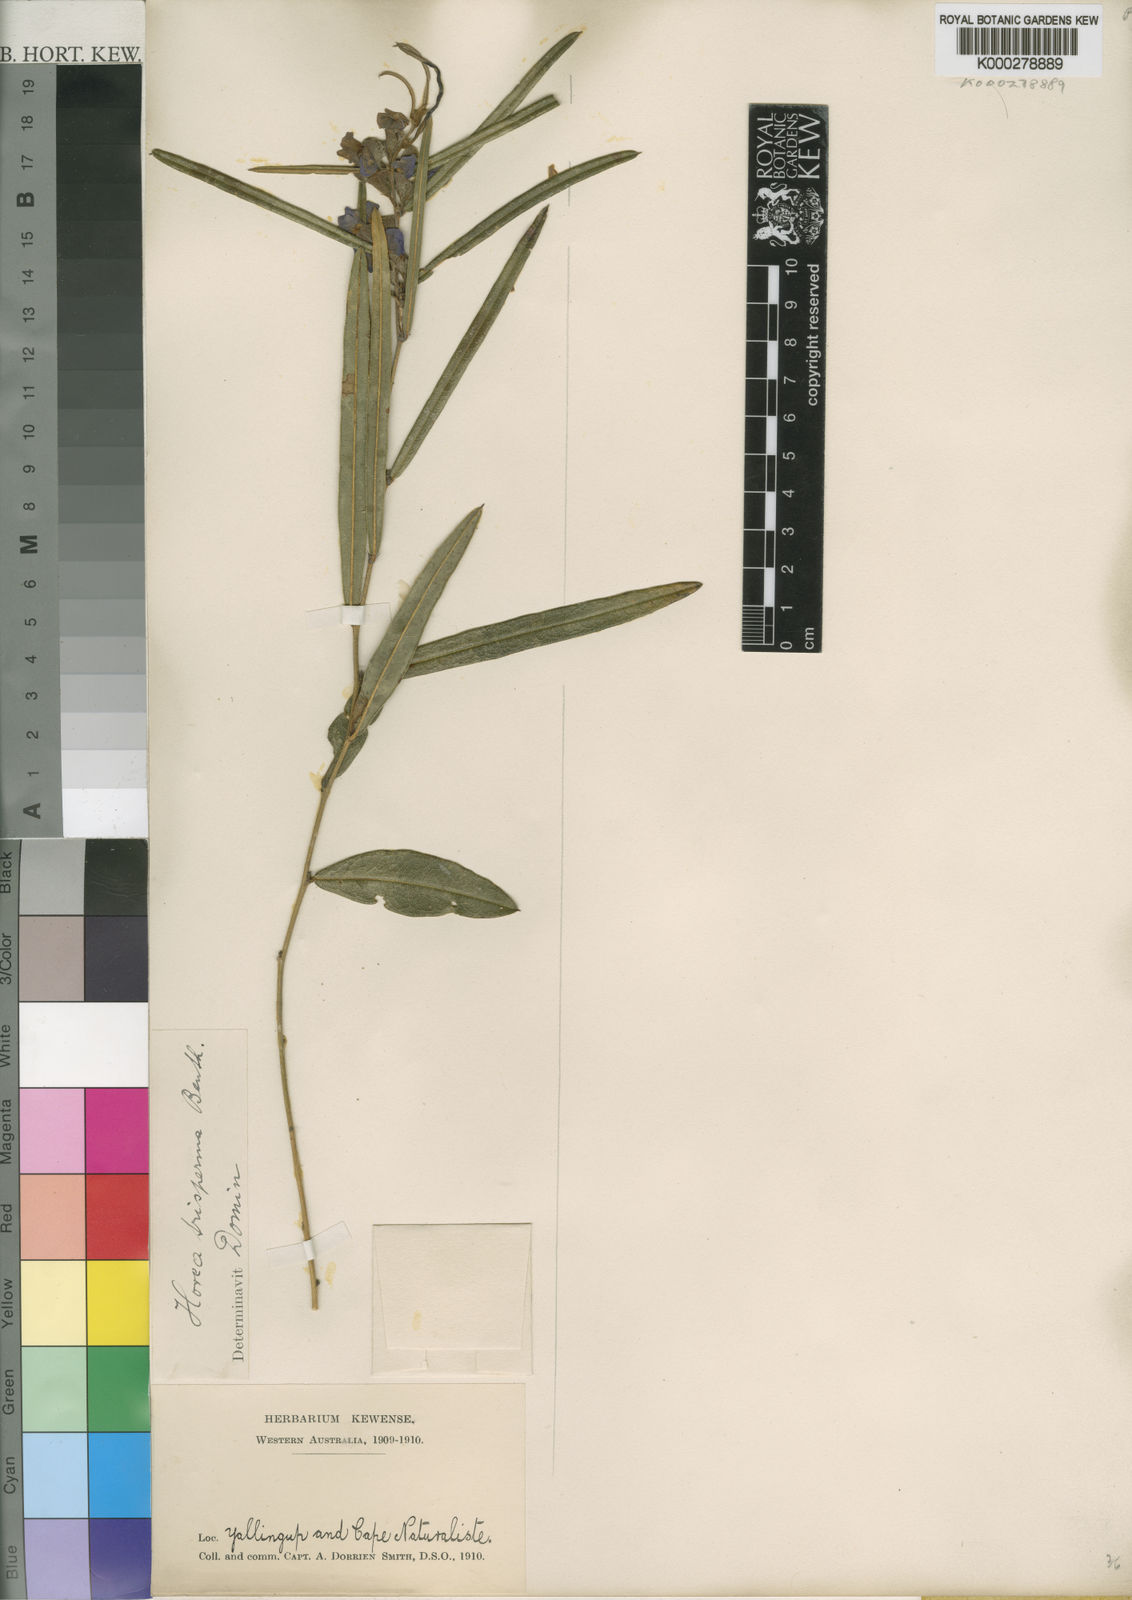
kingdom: Plantae
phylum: Tracheophyta
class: Magnoliopsida
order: Fabales
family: Fabaceae
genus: Hovea
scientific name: Hovea trisperma
